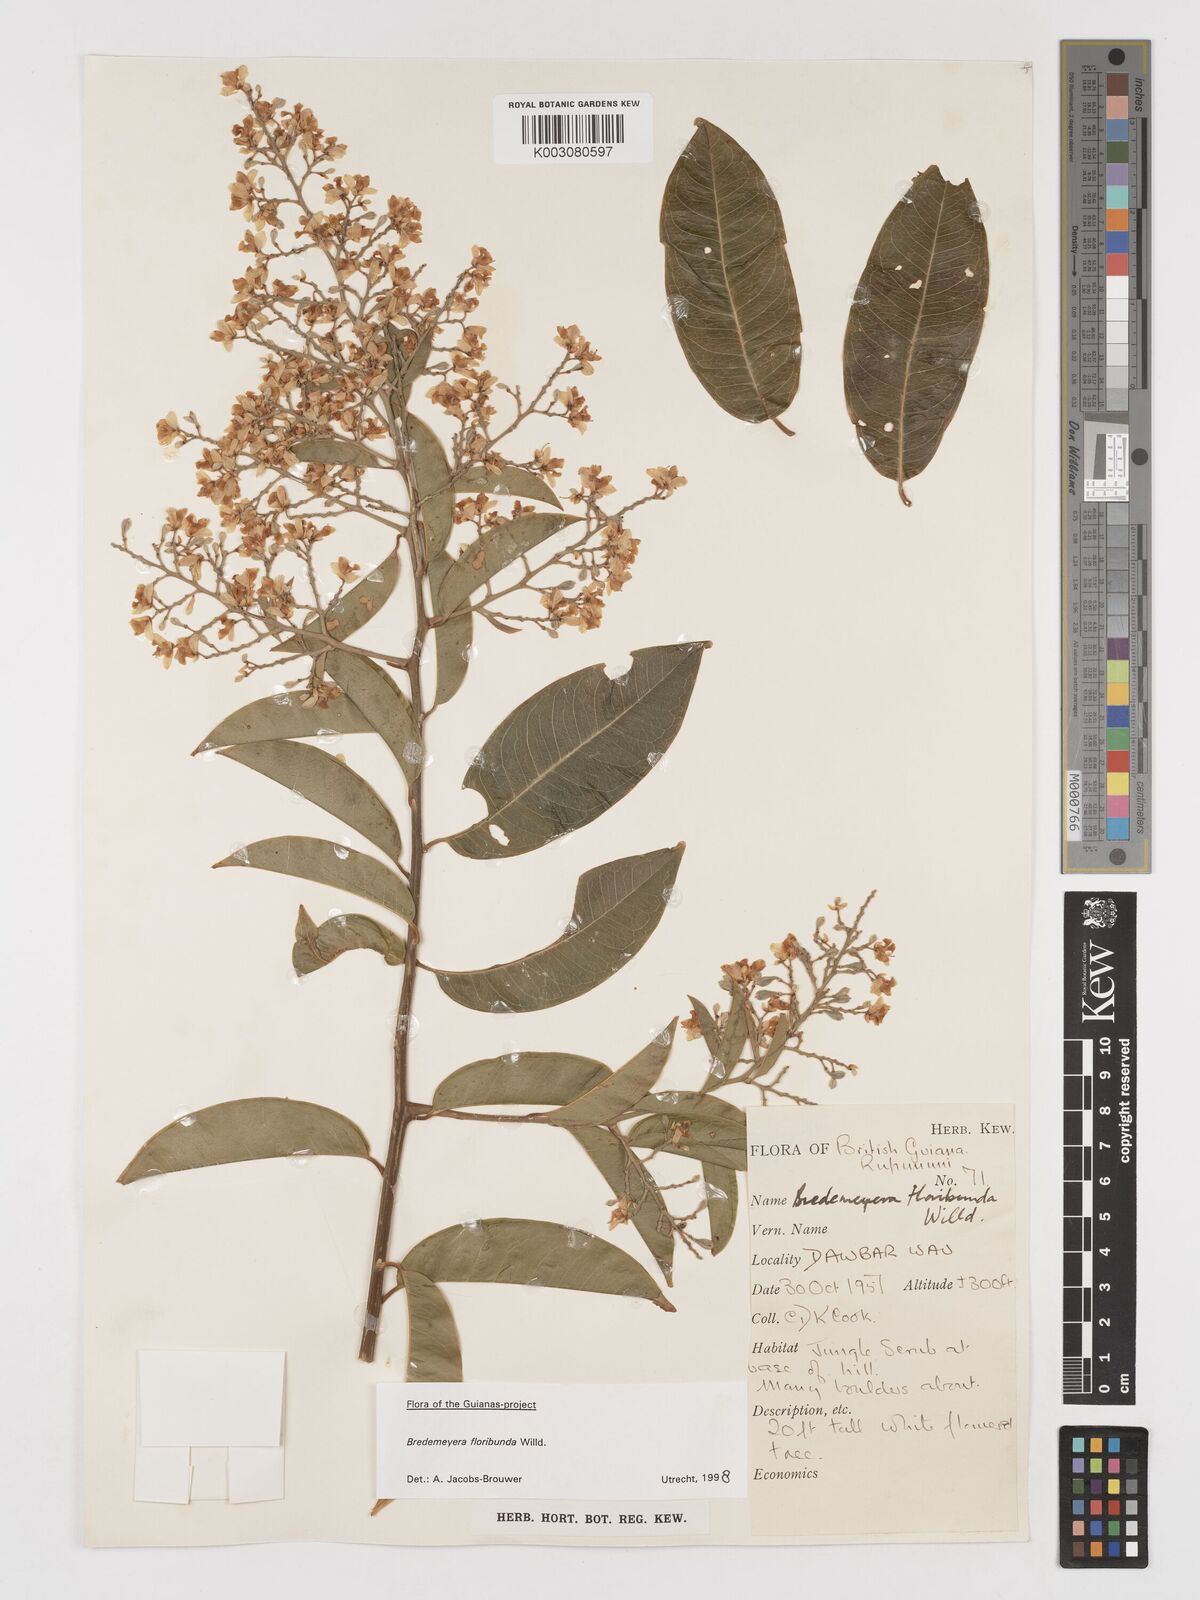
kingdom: Plantae
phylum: Tracheophyta
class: Magnoliopsida
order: Fabales
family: Polygalaceae
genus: Bredemeyera
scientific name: Bredemeyera floribunda
